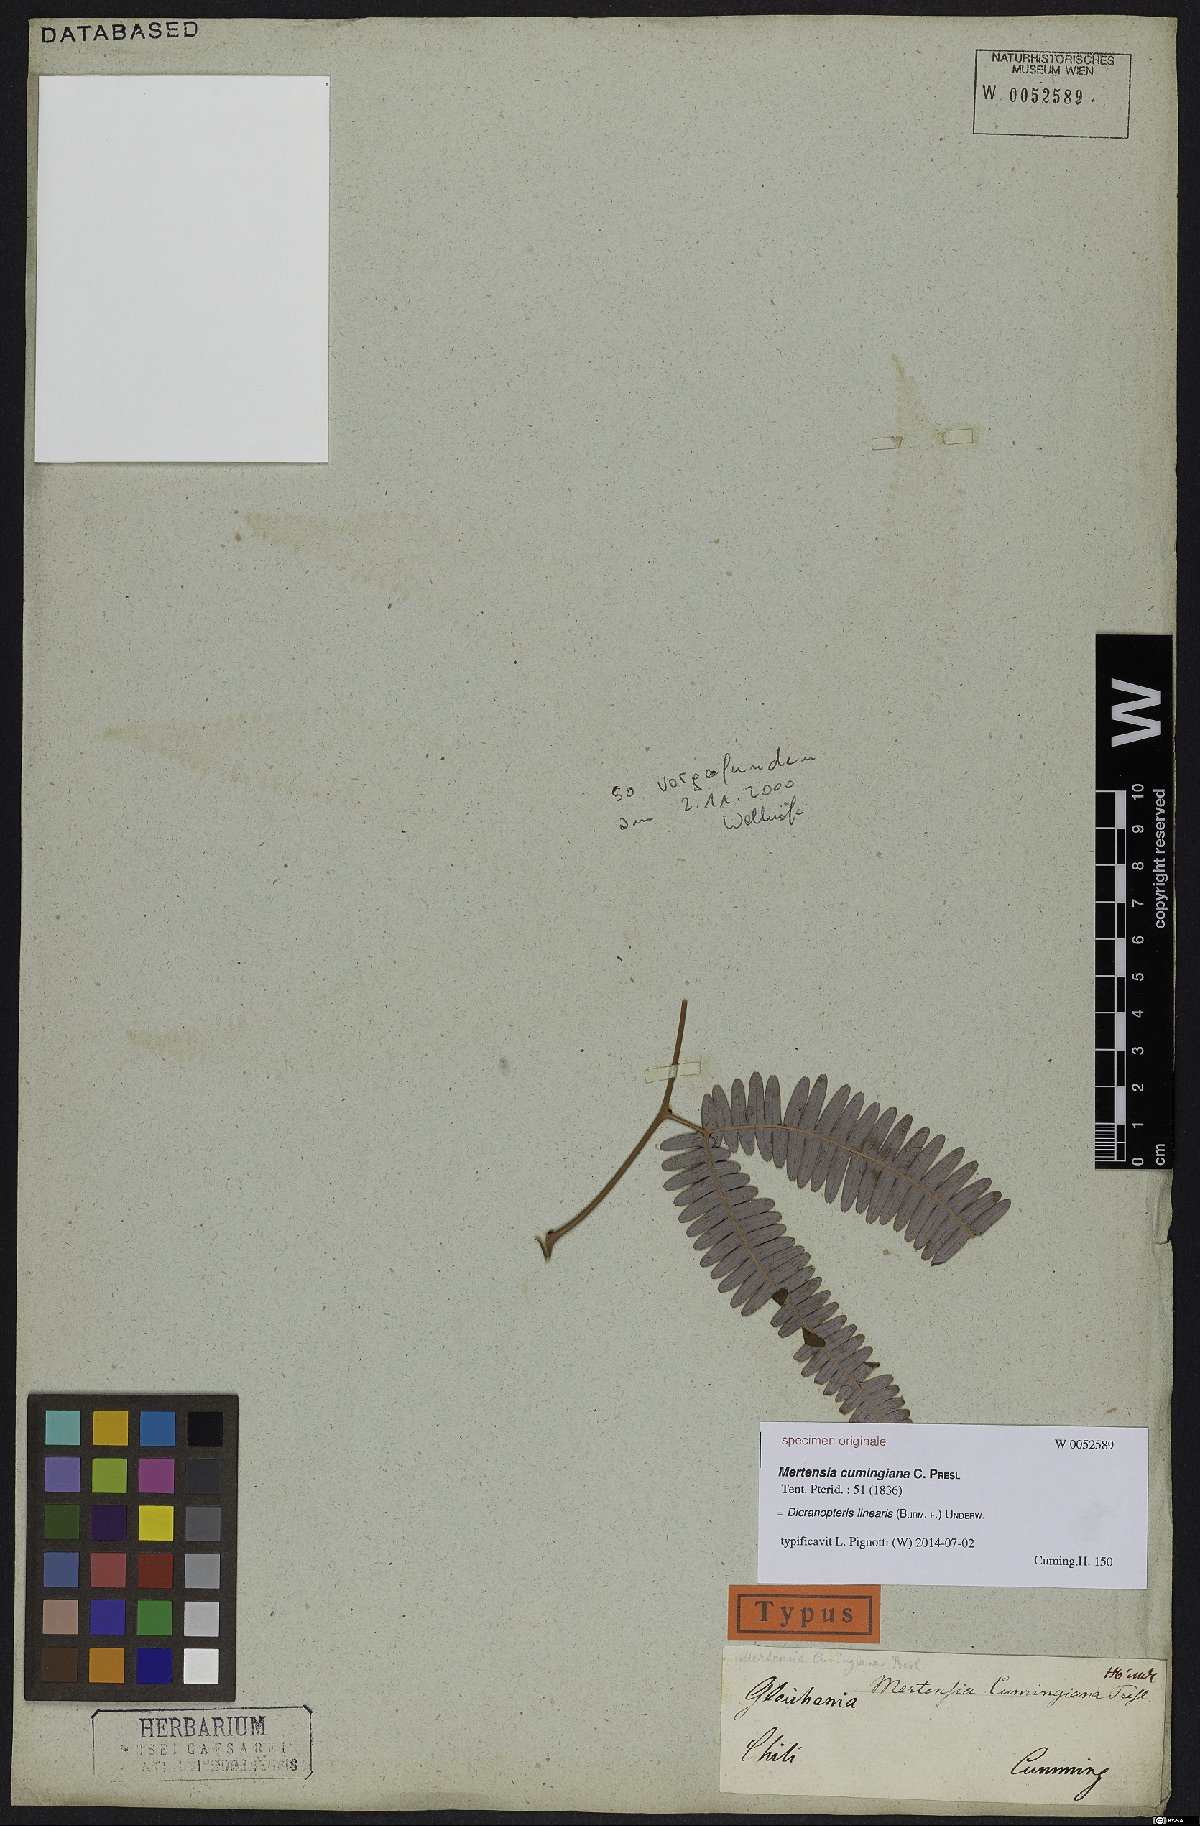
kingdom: Plantae
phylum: Tracheophyta
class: Polypodiopsida
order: Gleicheniales
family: Gleicheniaceae
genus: Dicranopteris
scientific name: Dicranopteris linearis
